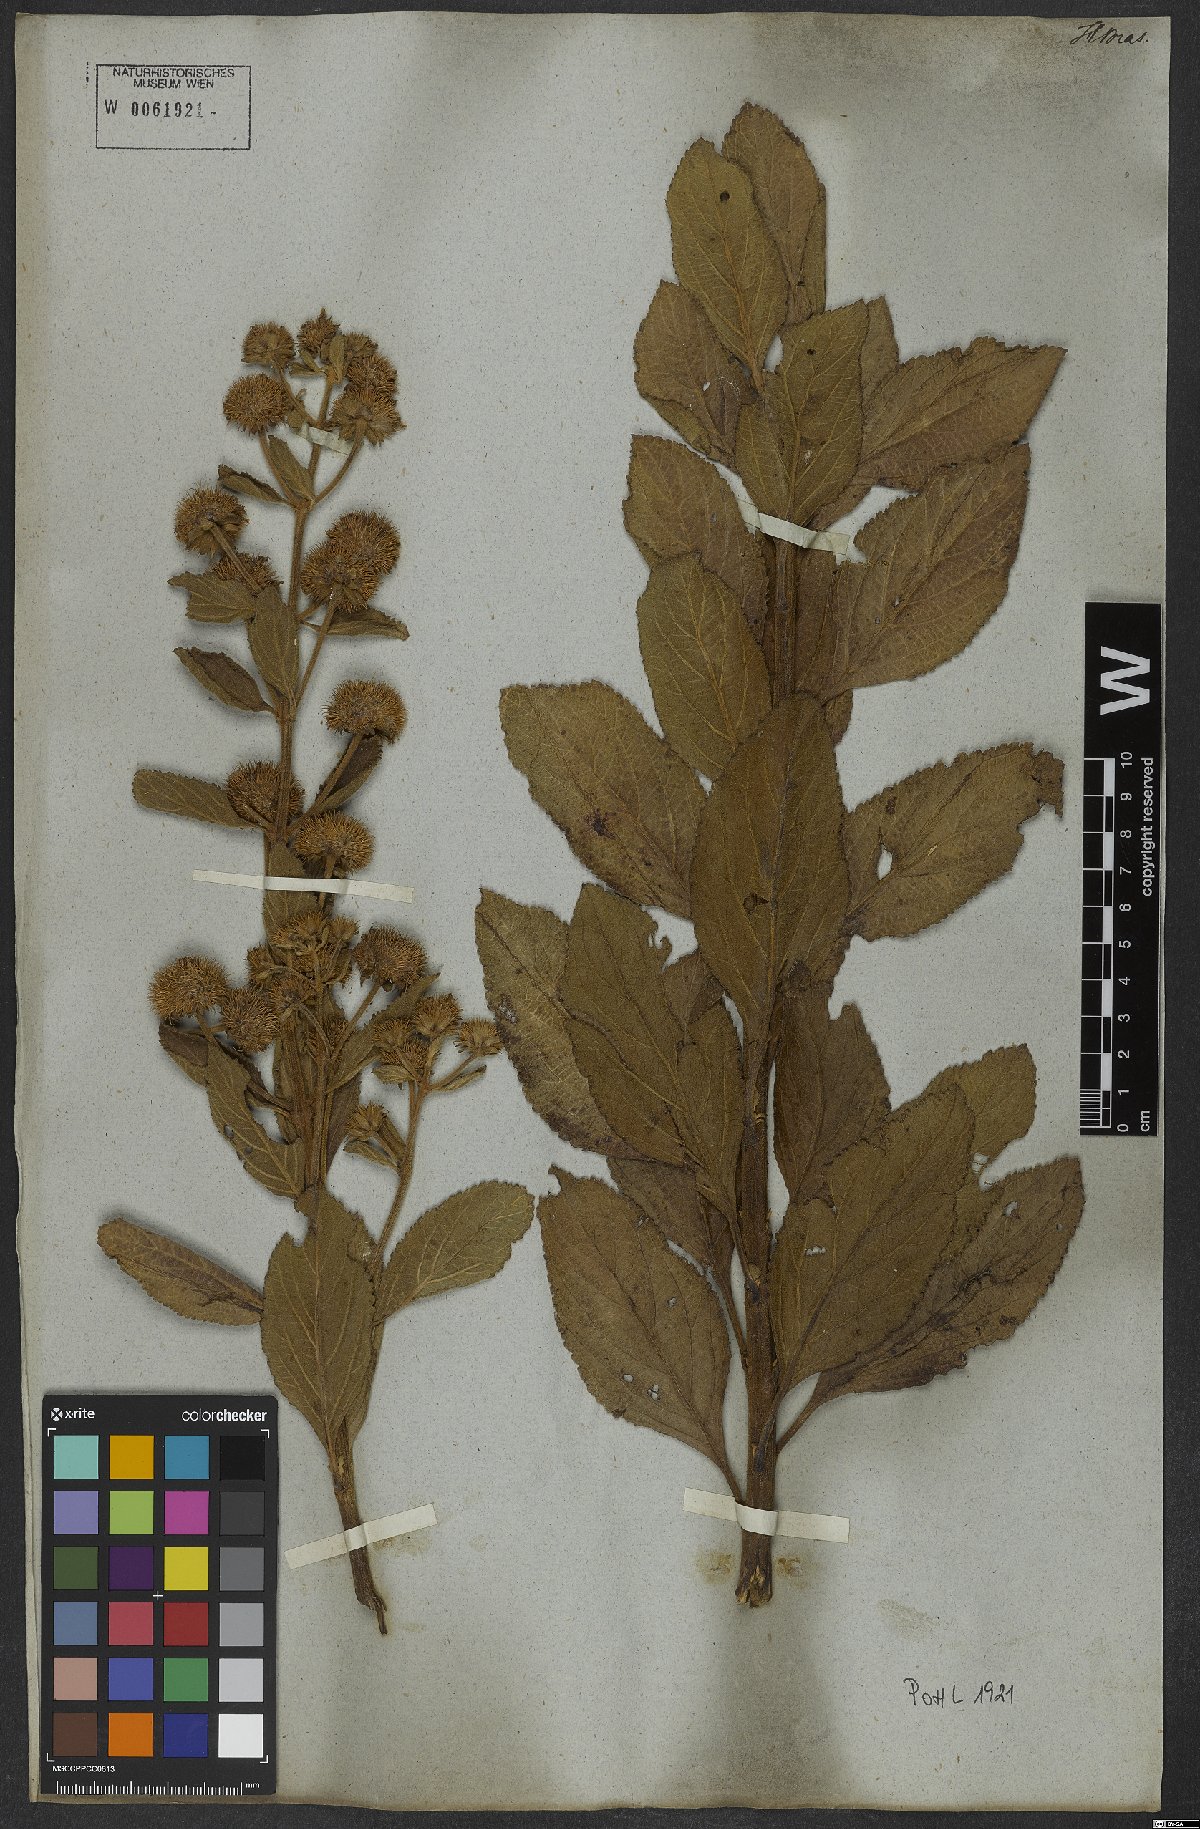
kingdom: Plantae
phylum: Tracheophyta
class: Magnoliopsida
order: Lamiales
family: Lamiaceae
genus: Hyptis
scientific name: Hyptis conferta
